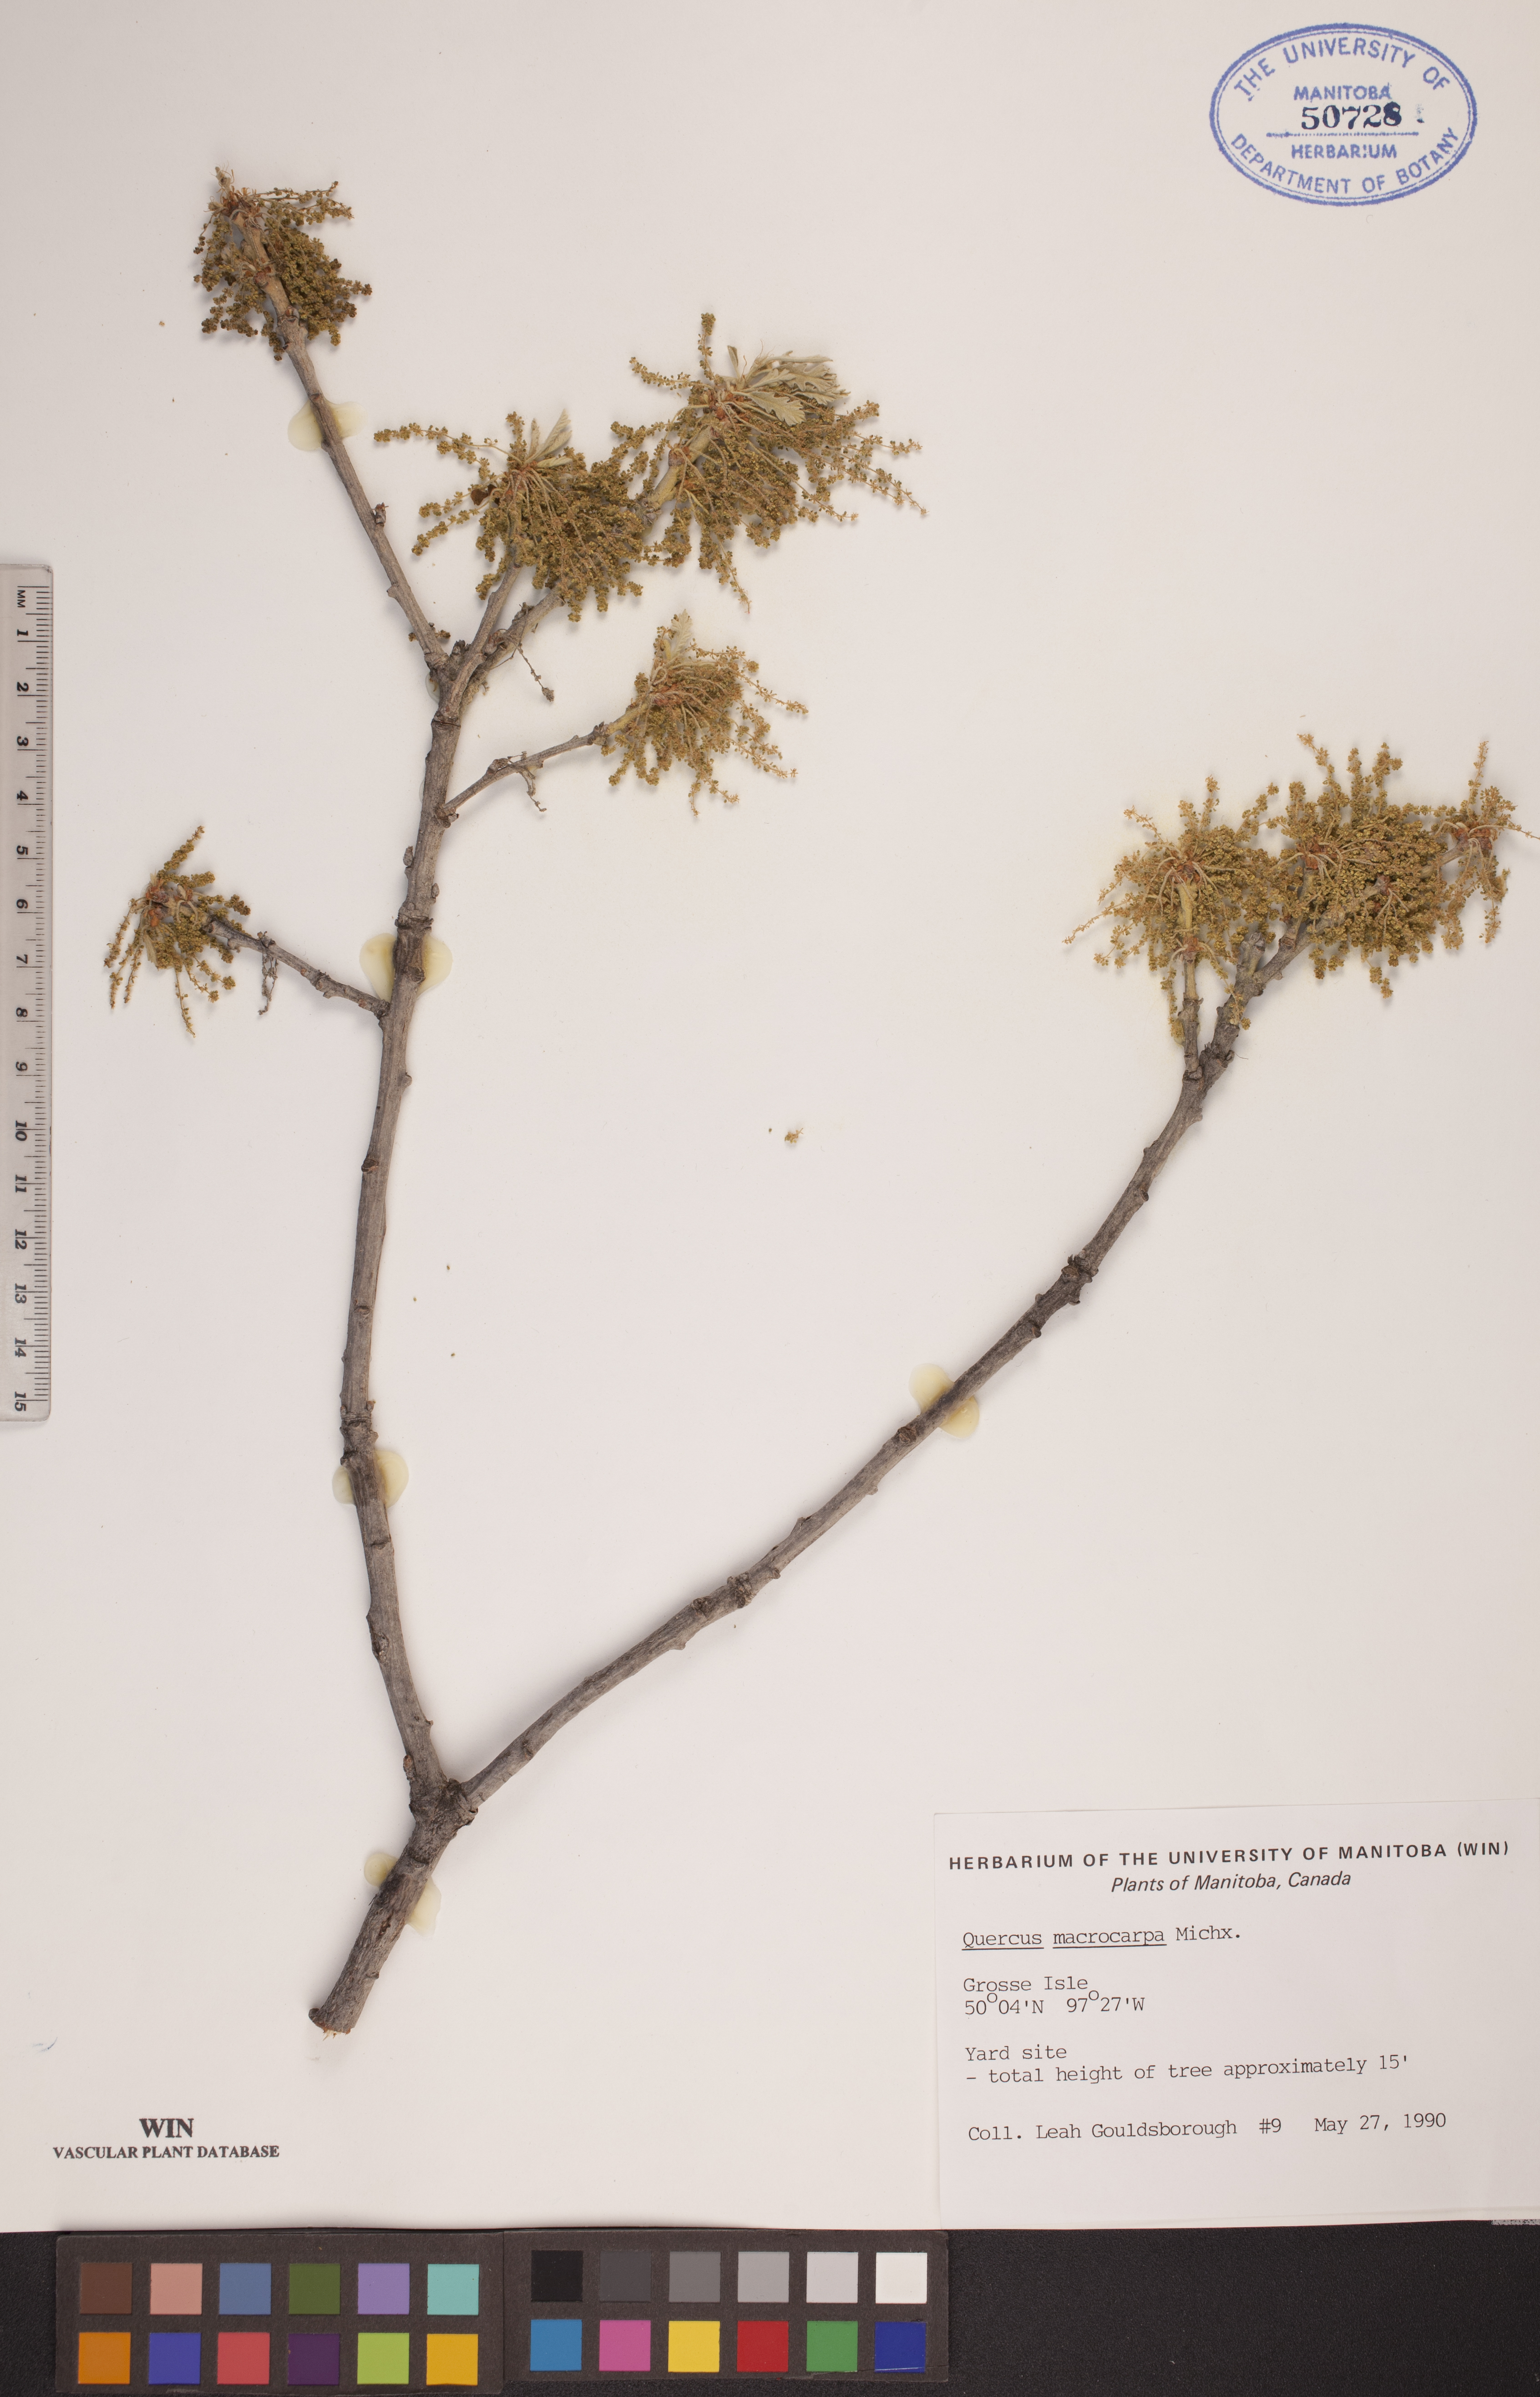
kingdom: Plantae
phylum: Tracheophyta
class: Magnoliopsida
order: Fagales
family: Fagaceae
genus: Quercus
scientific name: Quercus macrocarpa
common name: Bur oak
